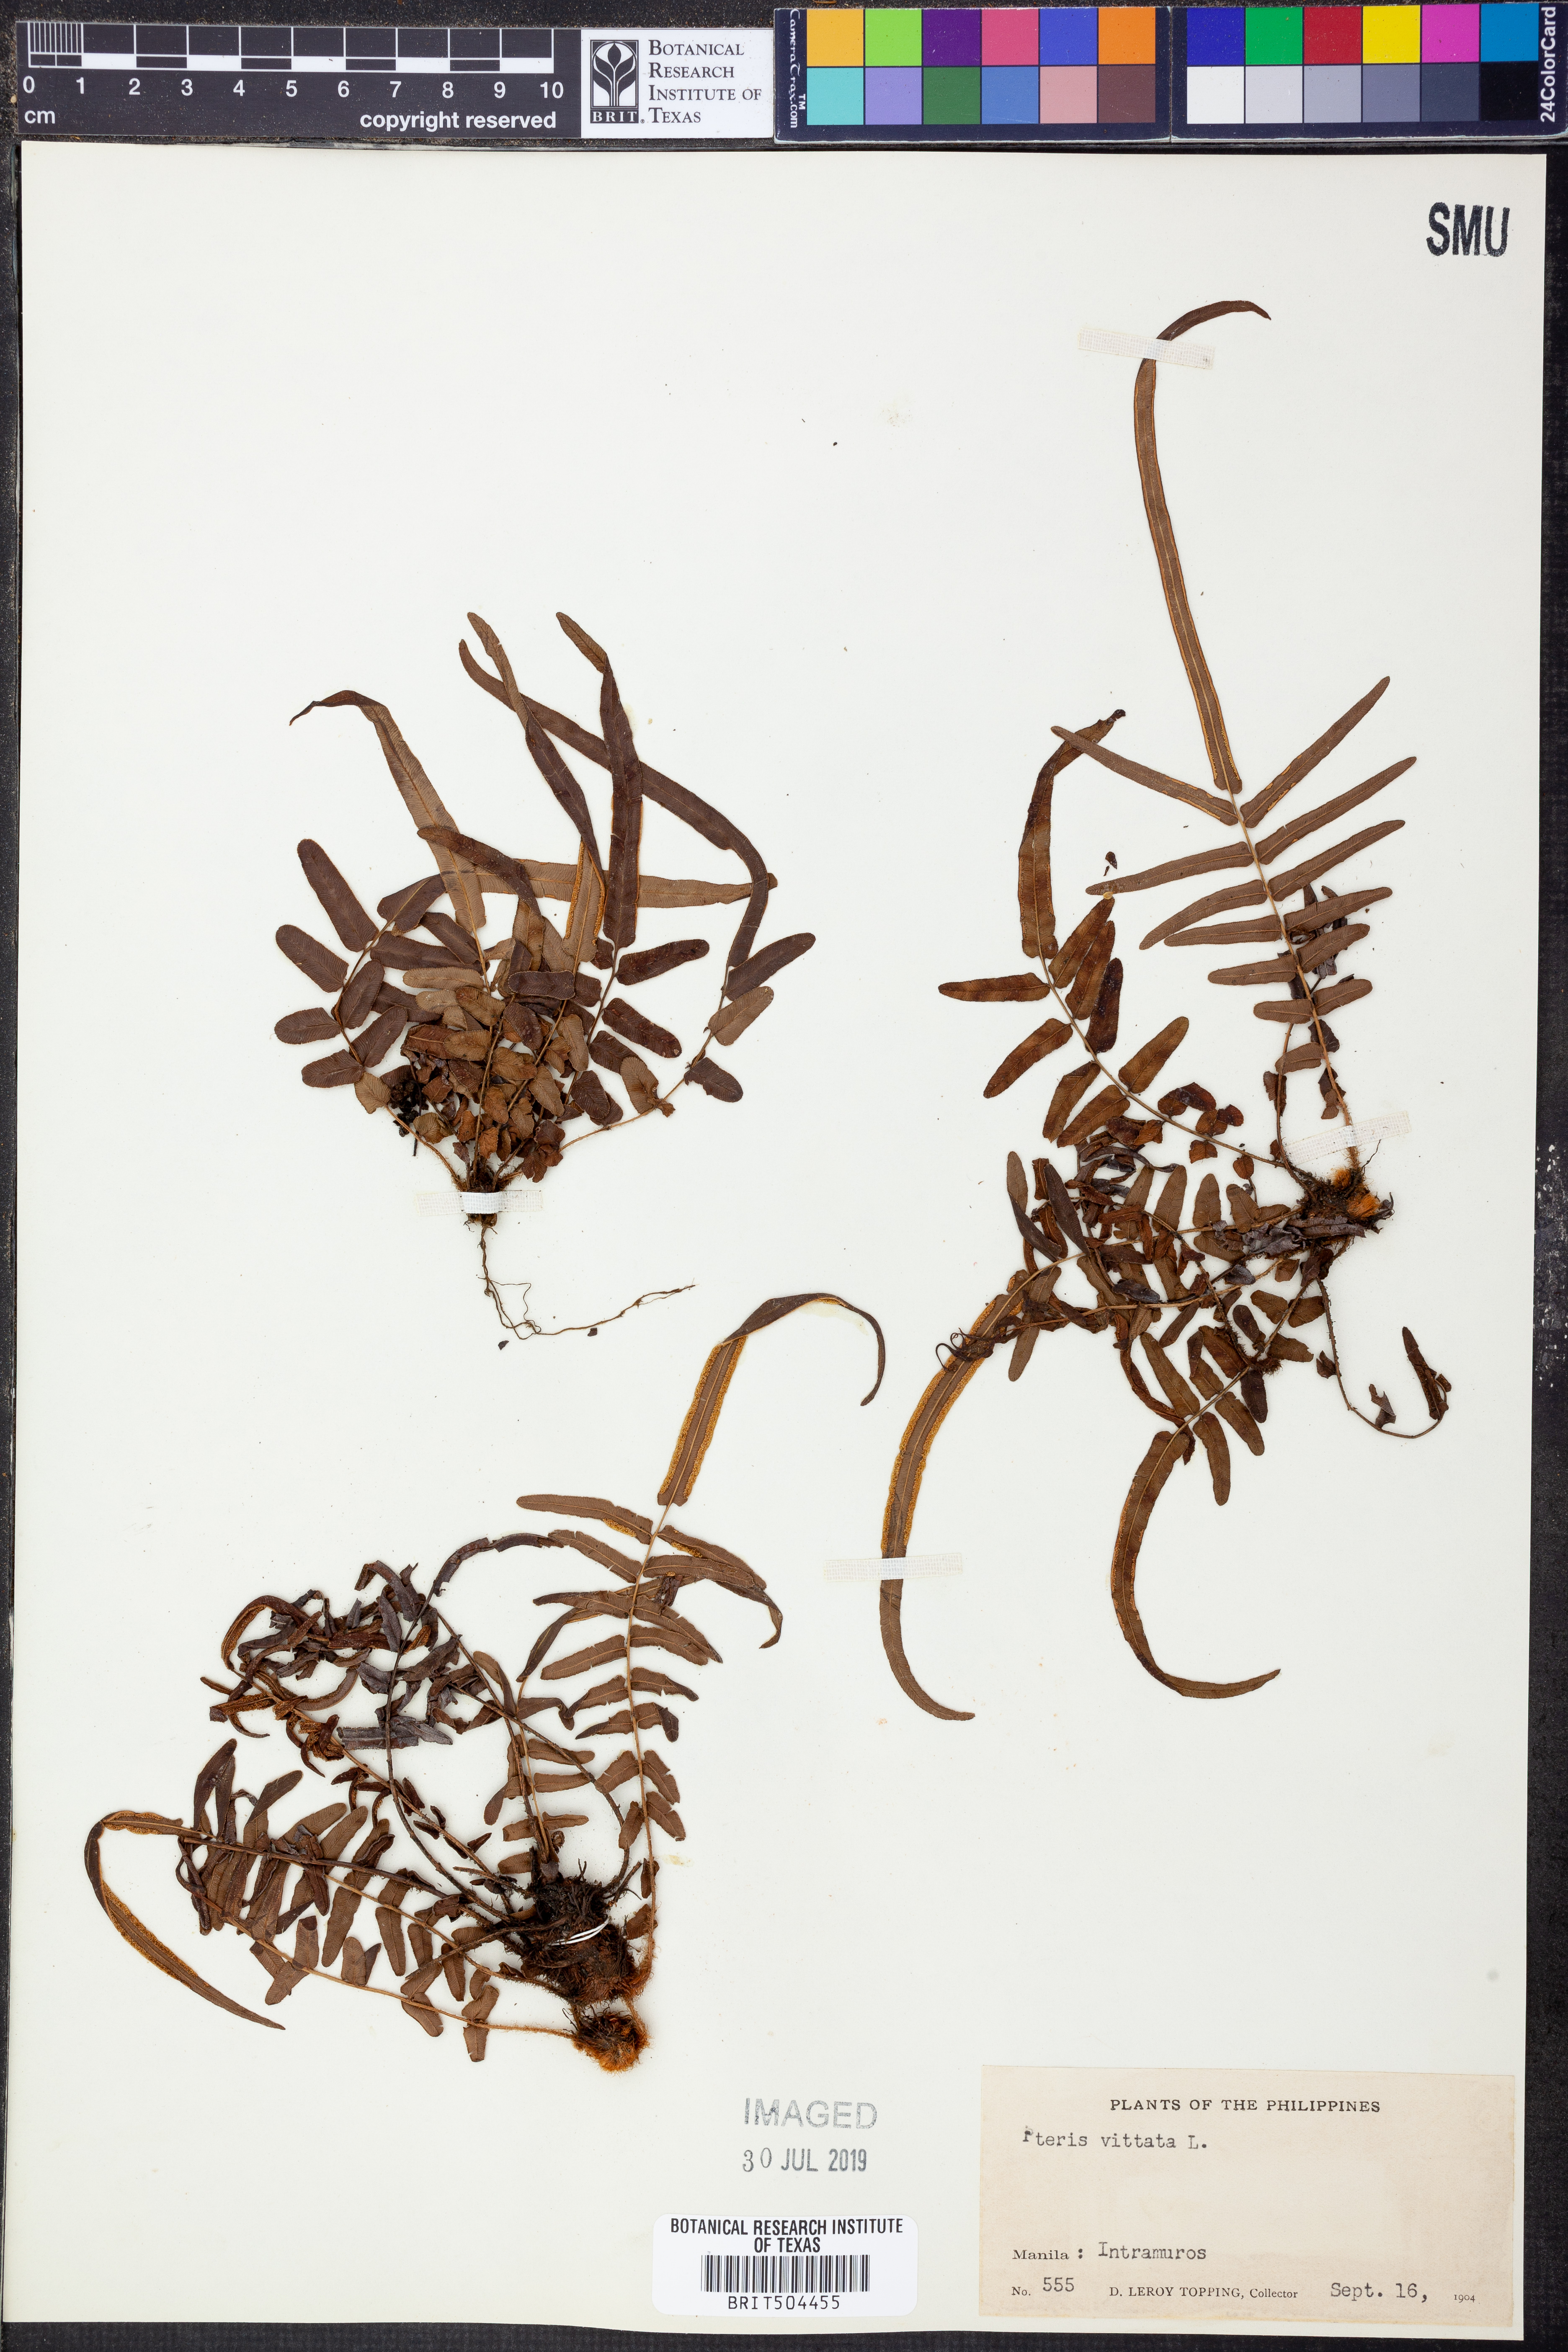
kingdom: Plantae
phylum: Tracheophyta
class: Polypodiopsida
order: Polypodiales
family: Pteridaceae
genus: Pteris
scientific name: Pteris vittata
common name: Ladder brake
